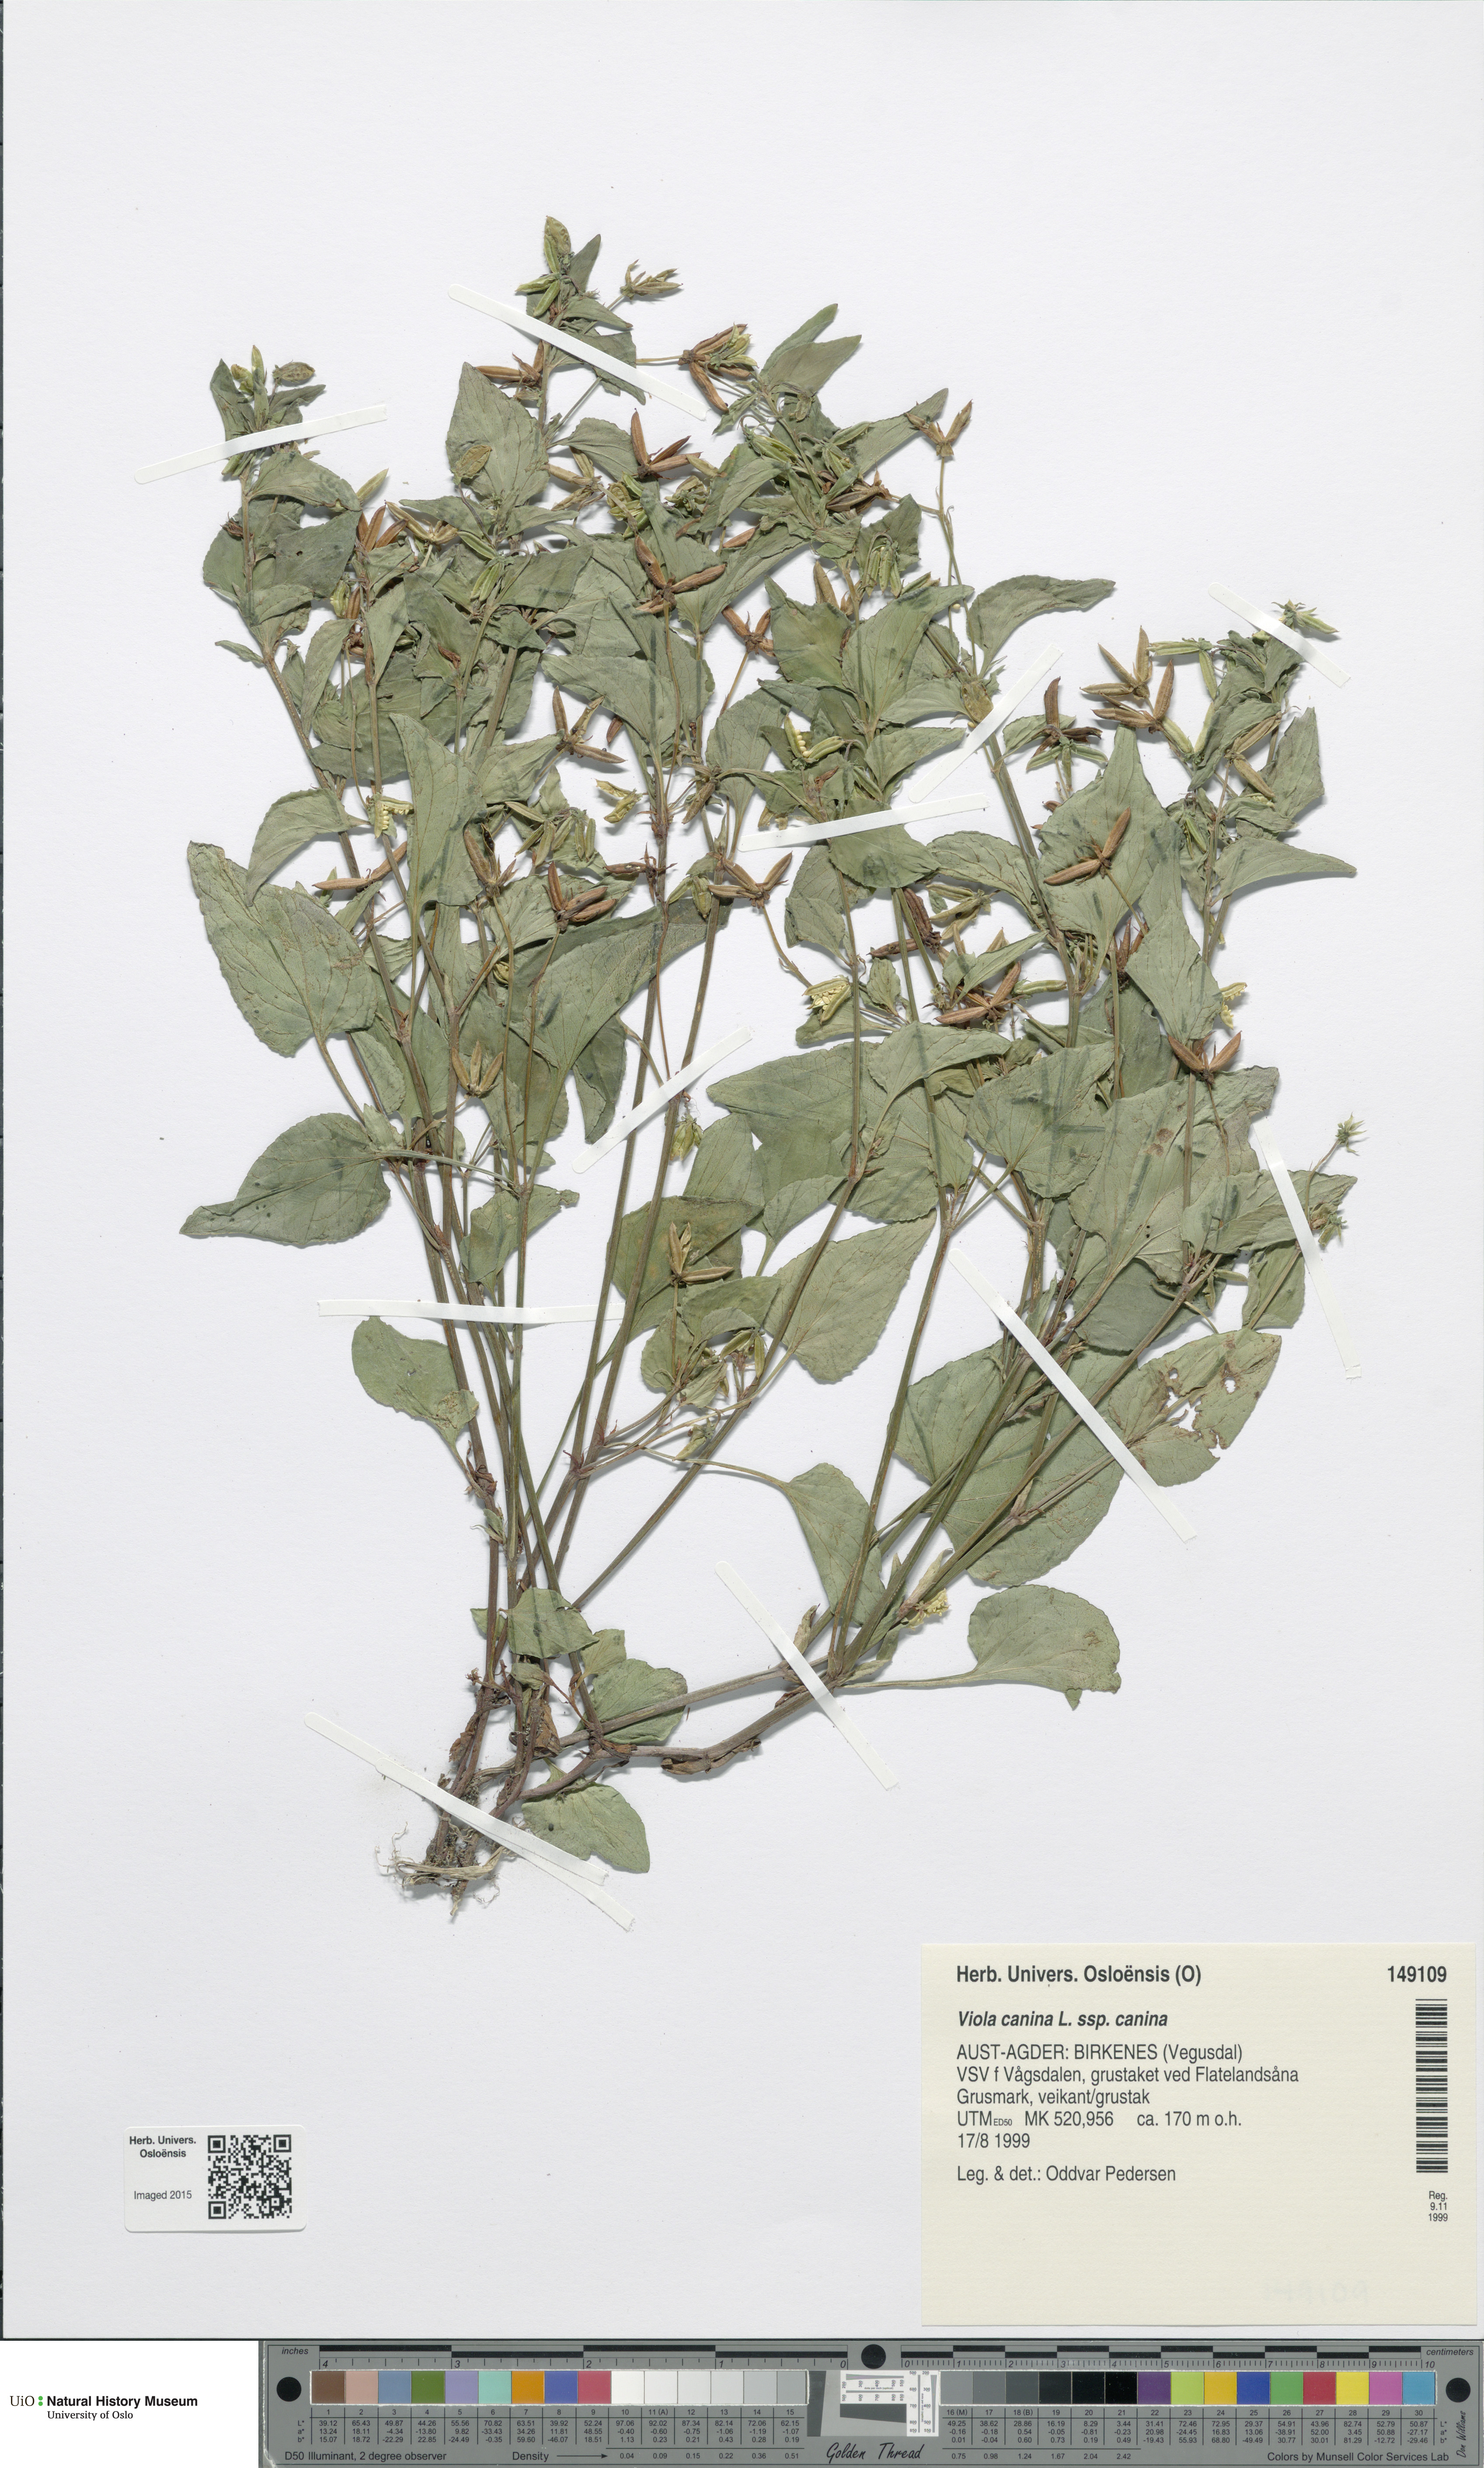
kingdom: Plantae
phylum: Tracheophyta
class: Magnoliopsida
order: Malpighiales
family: Violaceae
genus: Viola
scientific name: Viola canina
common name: Heath dog-violet
